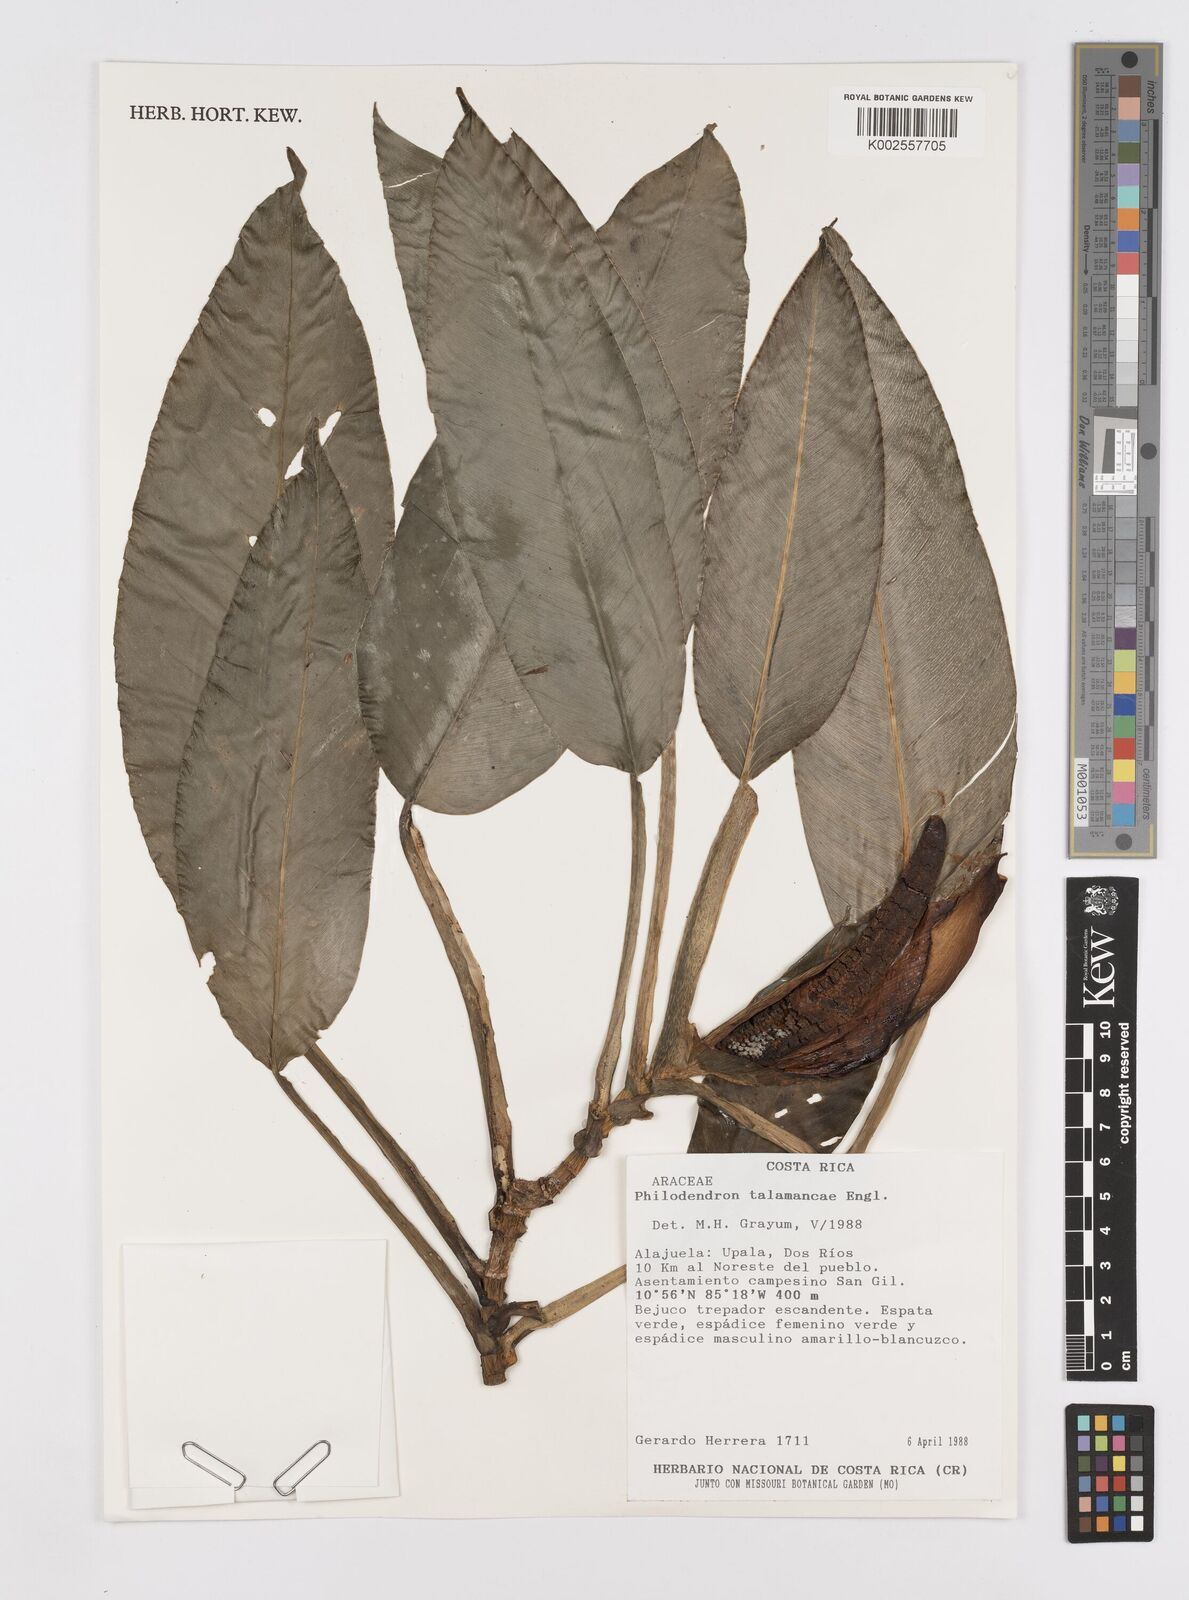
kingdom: Plantae
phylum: Tracheophyta
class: Liliopsida
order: Alismatales
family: Araceae
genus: Philodendron
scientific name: Philodendron schottii
